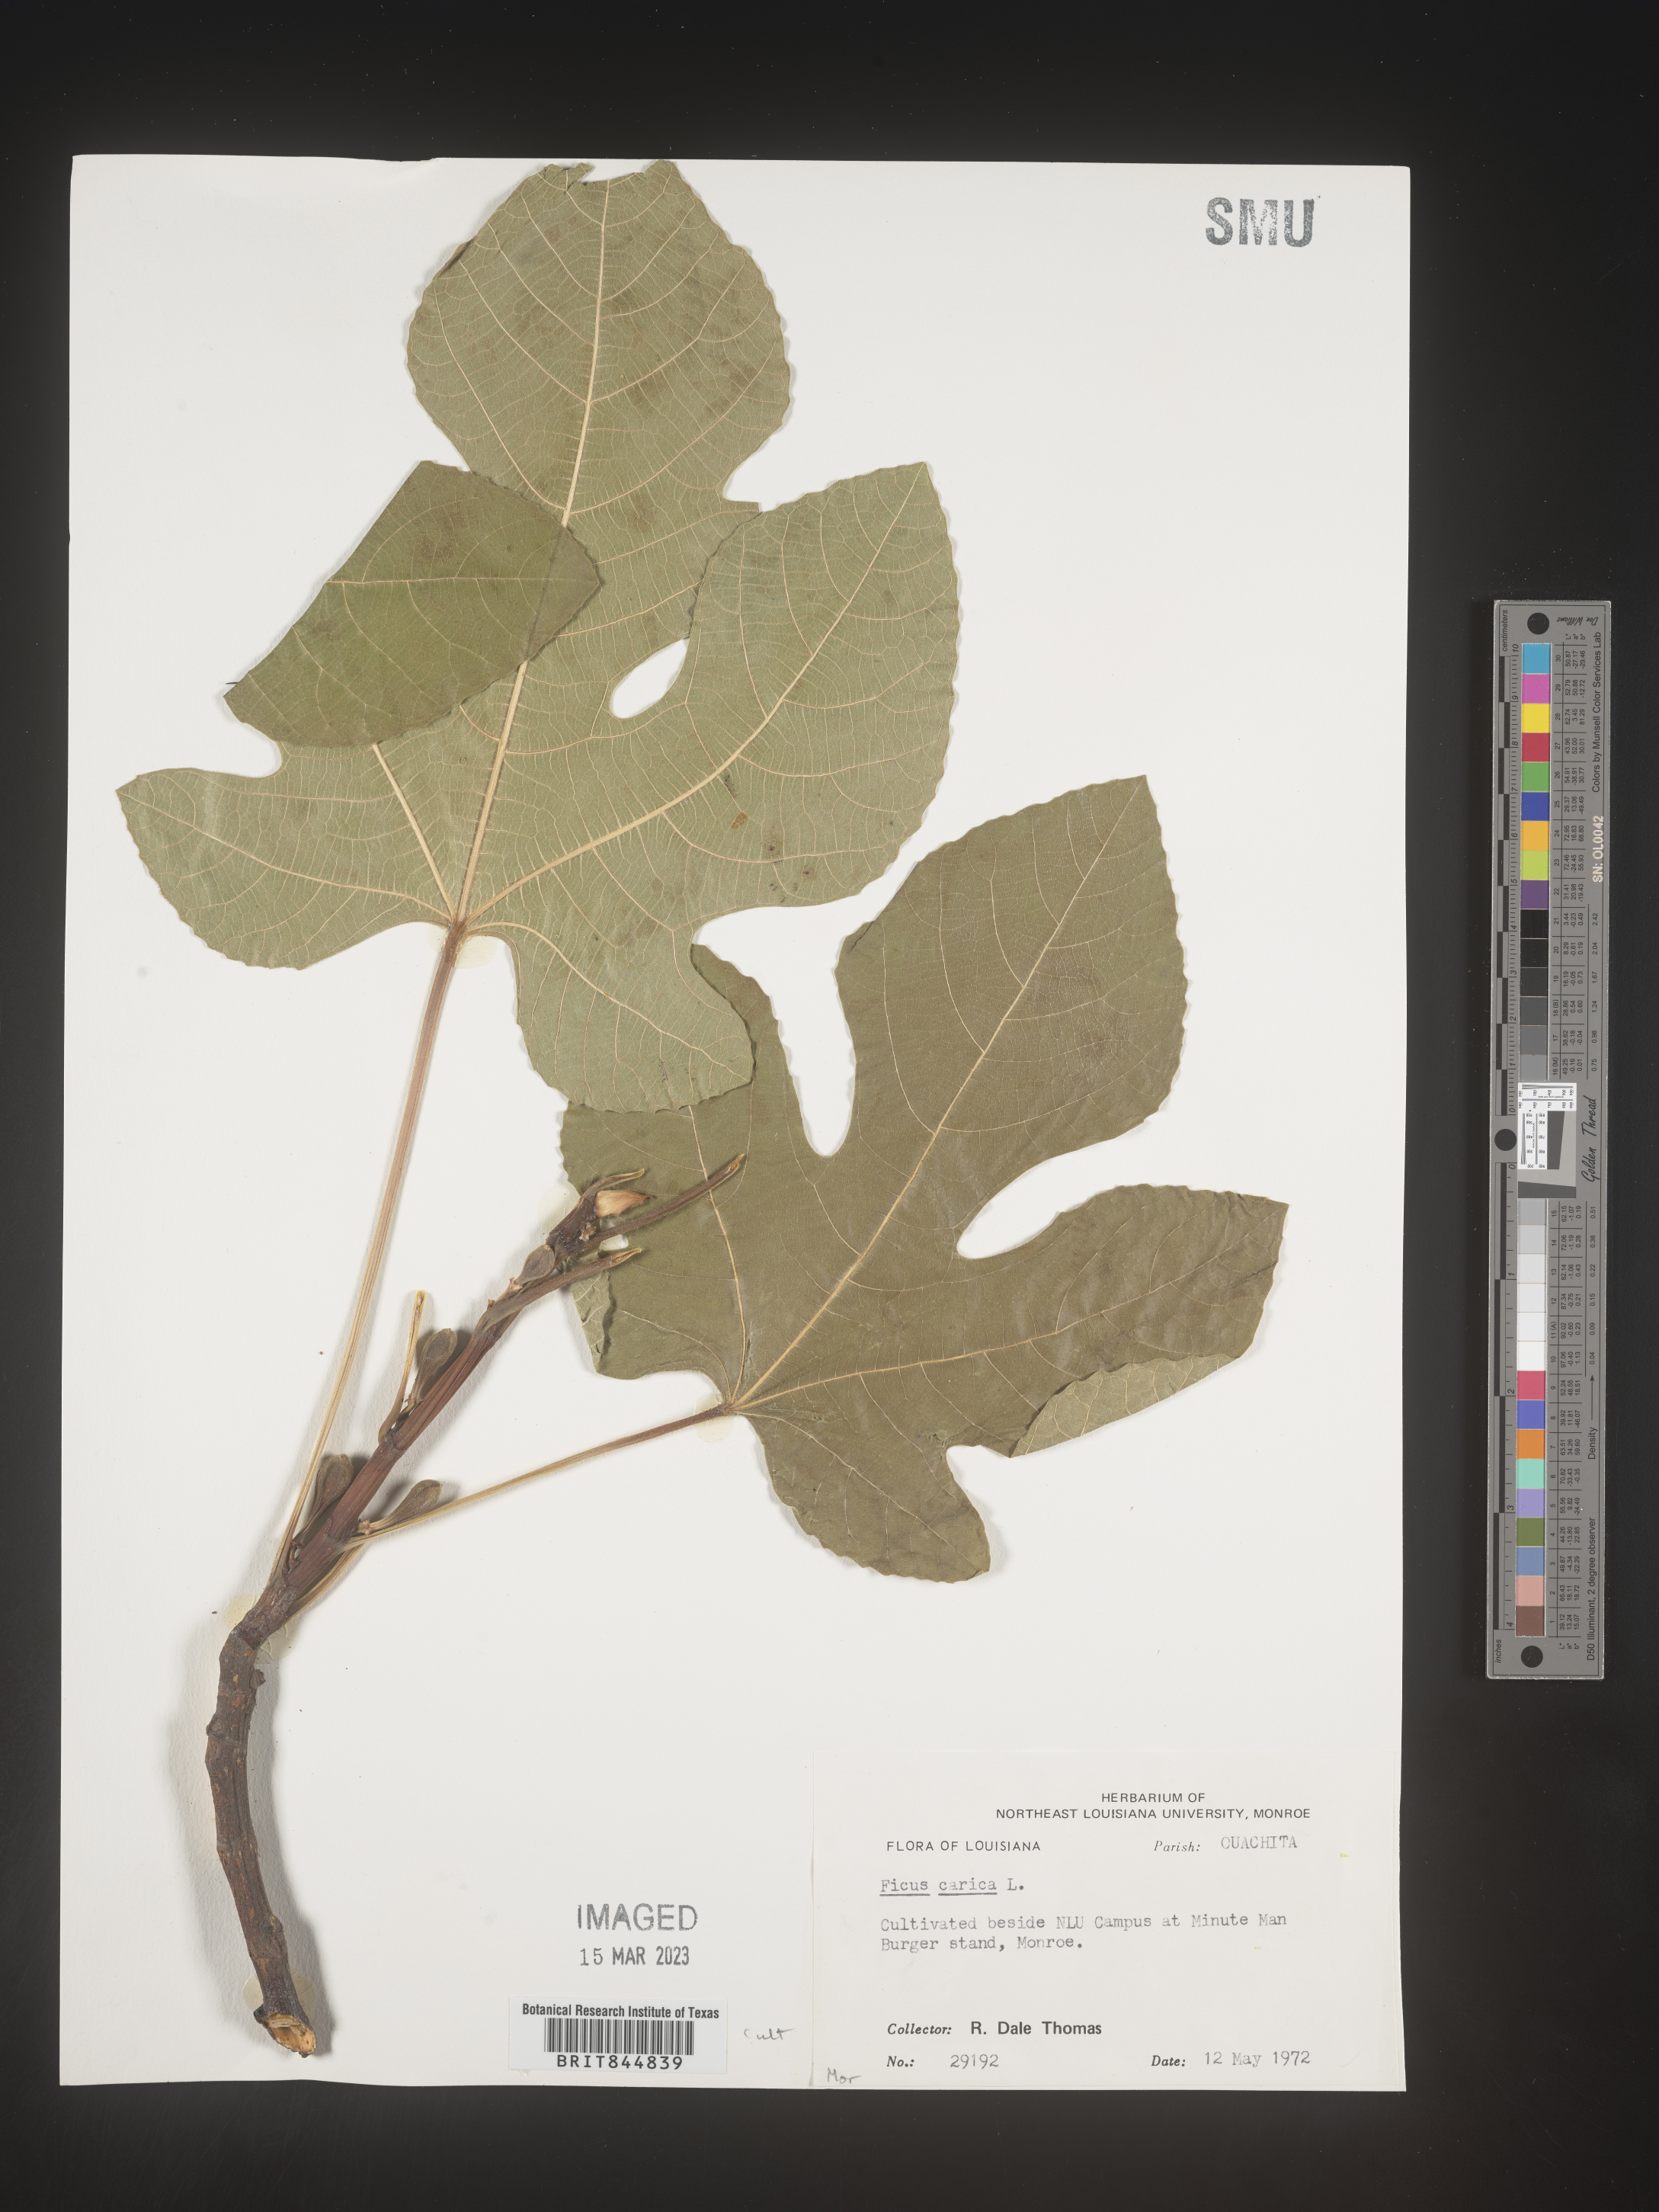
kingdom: Plantae
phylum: Tracheophyta
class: Magnoliopsida
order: Rosales
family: Moraceae
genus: Ficus
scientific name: Ficus
